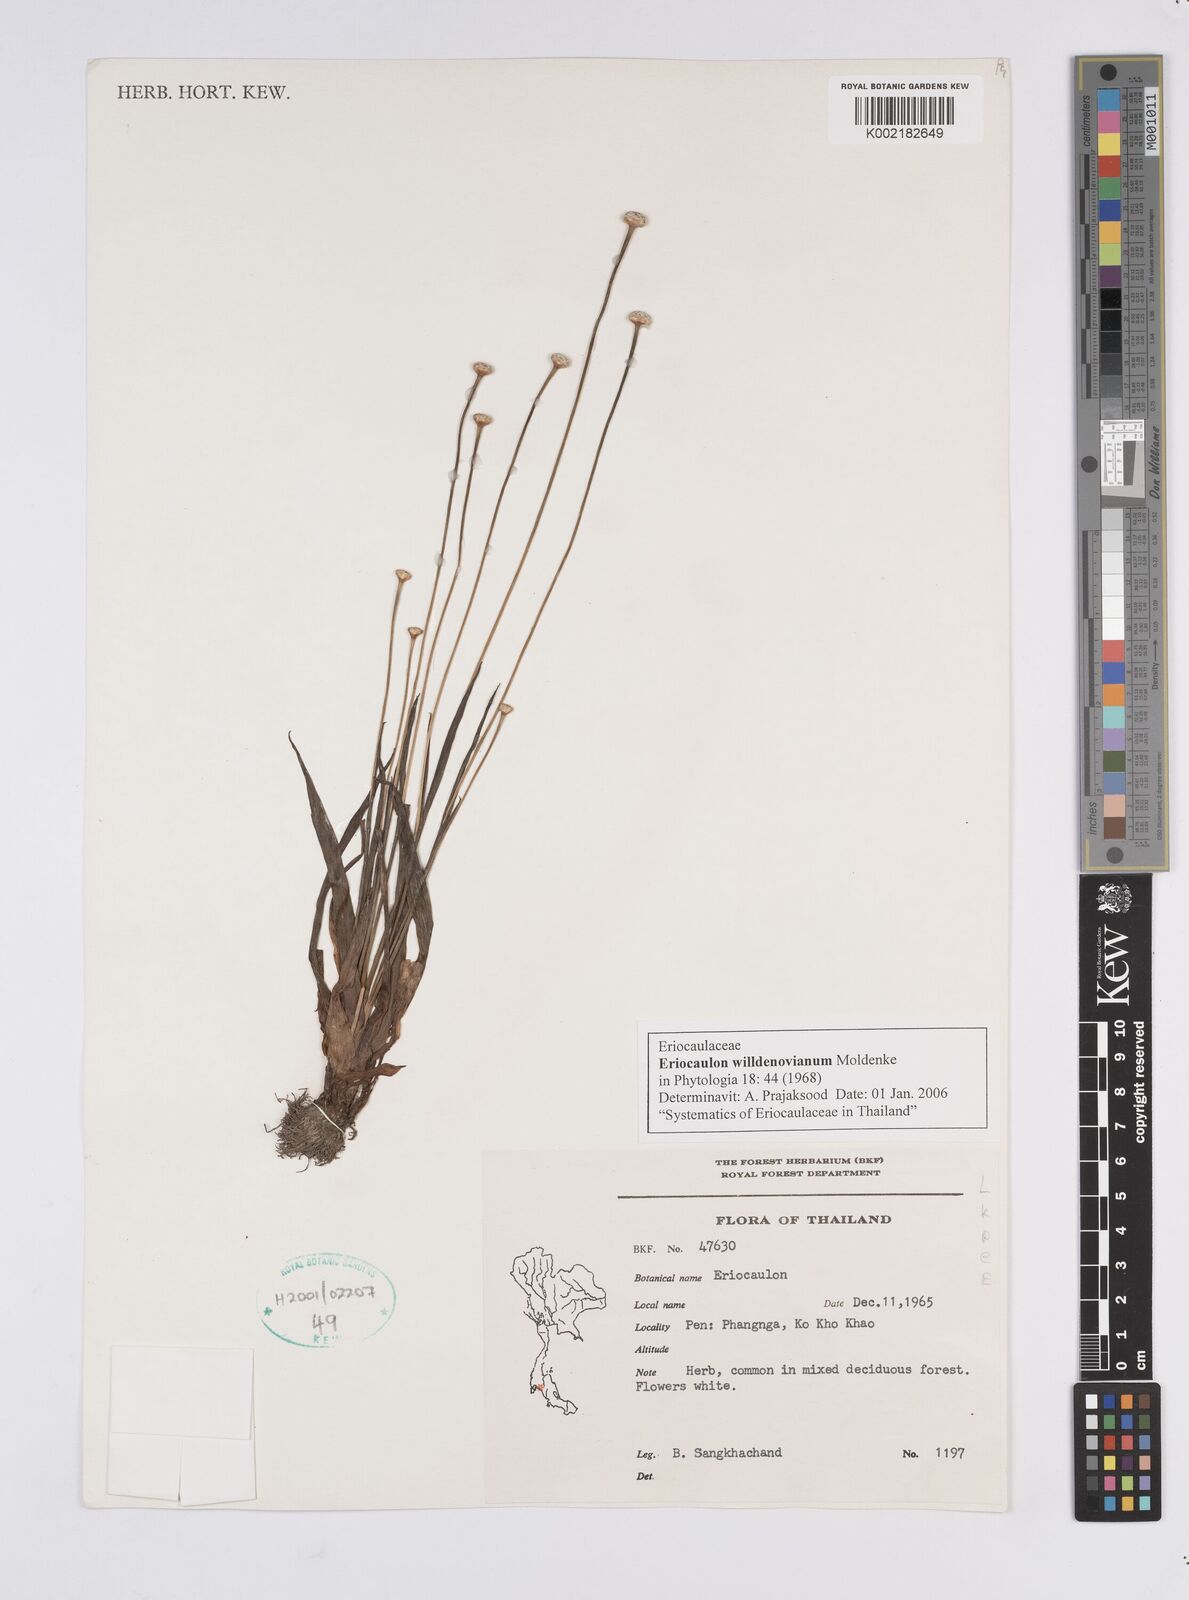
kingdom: Plantae
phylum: Tracheophyta
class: Liliopsida
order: Poales
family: Eriocaulaceae
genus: Eriocaulon
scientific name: Eriocaulon willdenovianum
